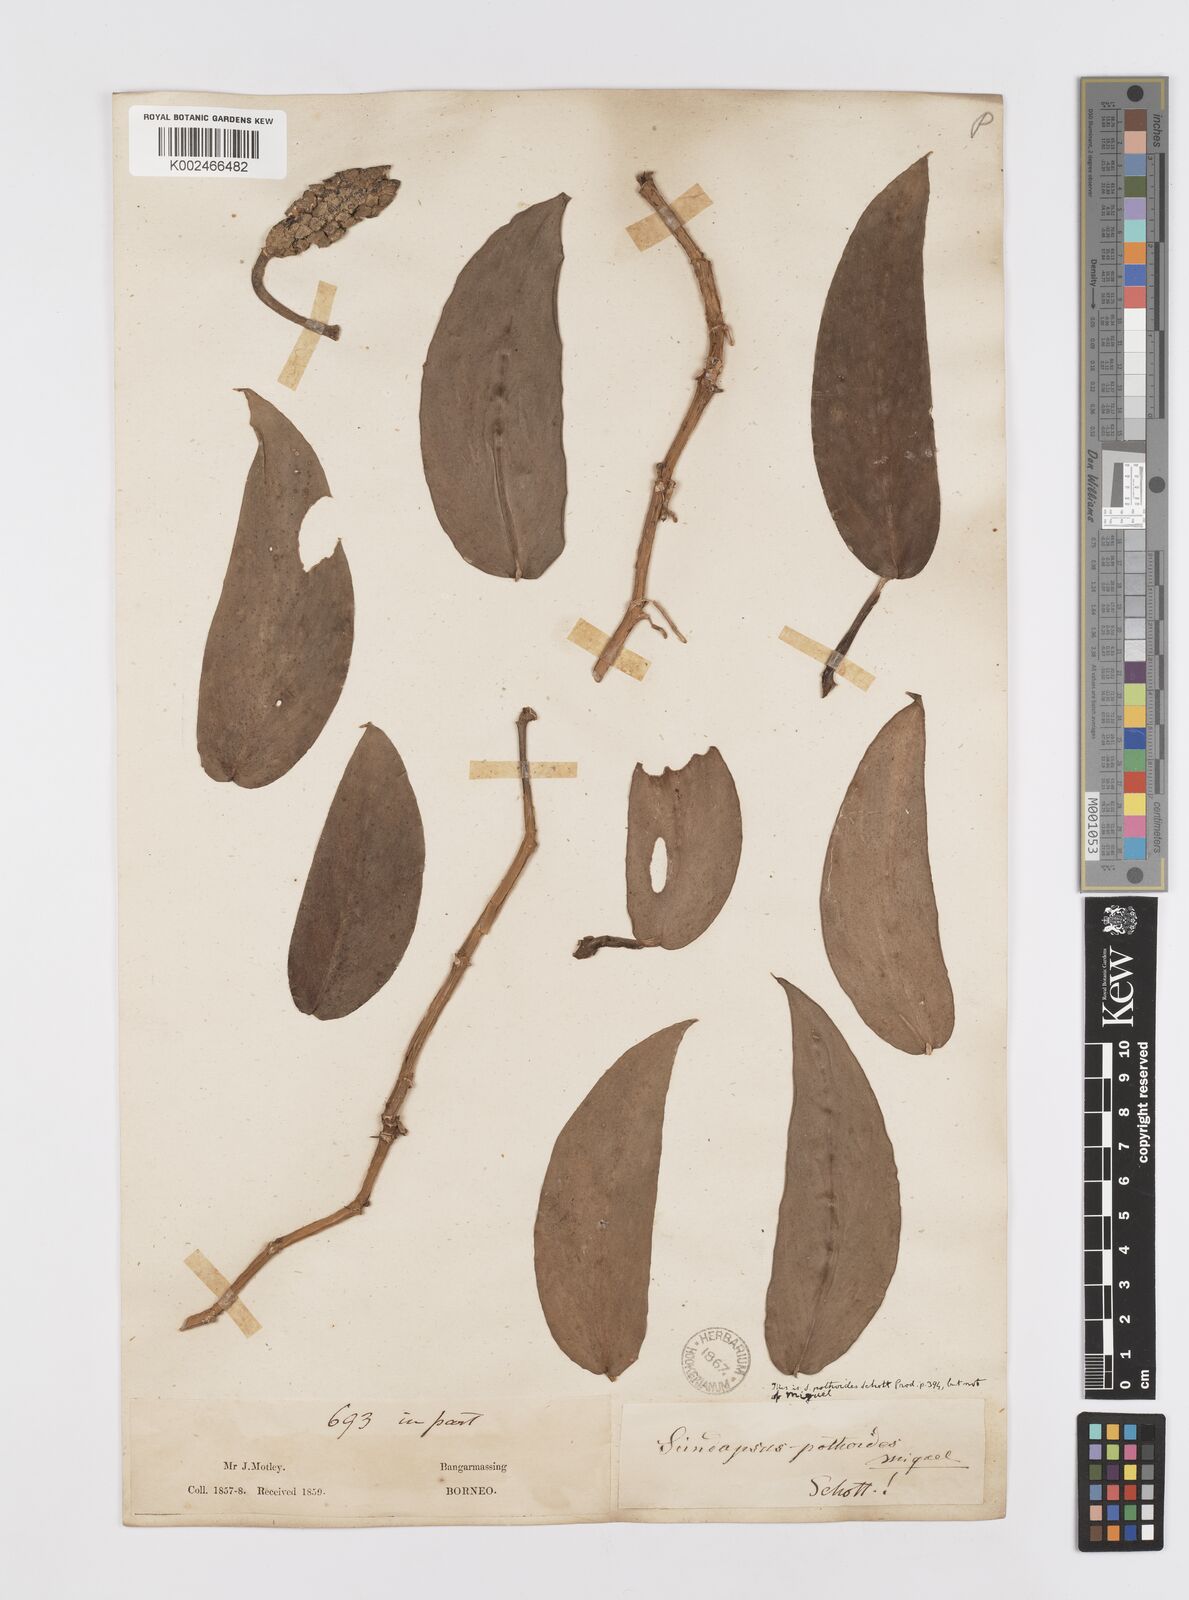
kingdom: Plantae
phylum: Tracheophyta
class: Liliopsida
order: Alismatales
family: Araceae
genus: Scindapsus
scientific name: Scindapsus pictus
